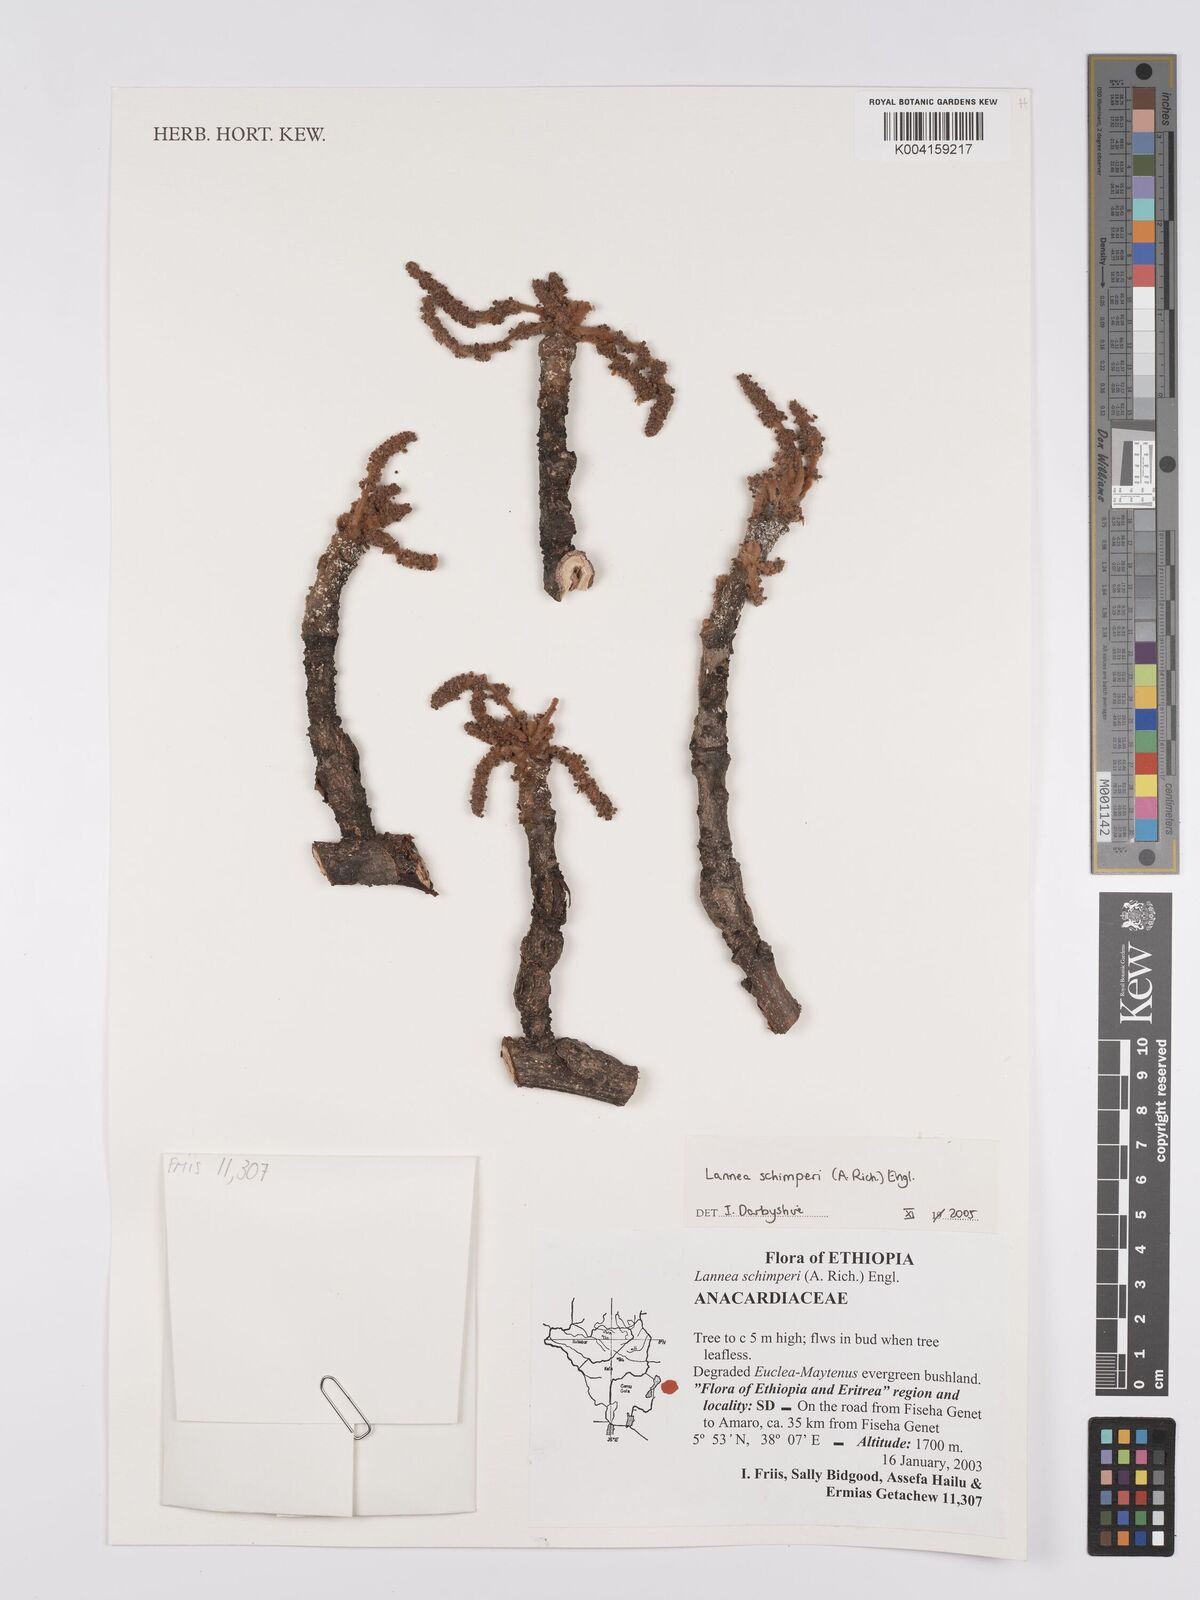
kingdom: Plantae
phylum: Tracheophyta
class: Magnoliopsida
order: Sapindales
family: Anacardiaceae
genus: Lannea
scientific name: Lannea schimperi
